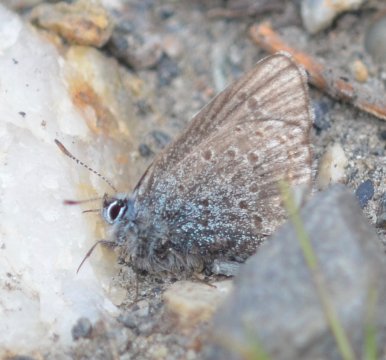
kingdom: Animalia
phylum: Arthropoda
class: Insecta
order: Lepidoptera
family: Lycaenidae
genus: Lycaeides
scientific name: Lycaeides idas
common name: Northern Blue
